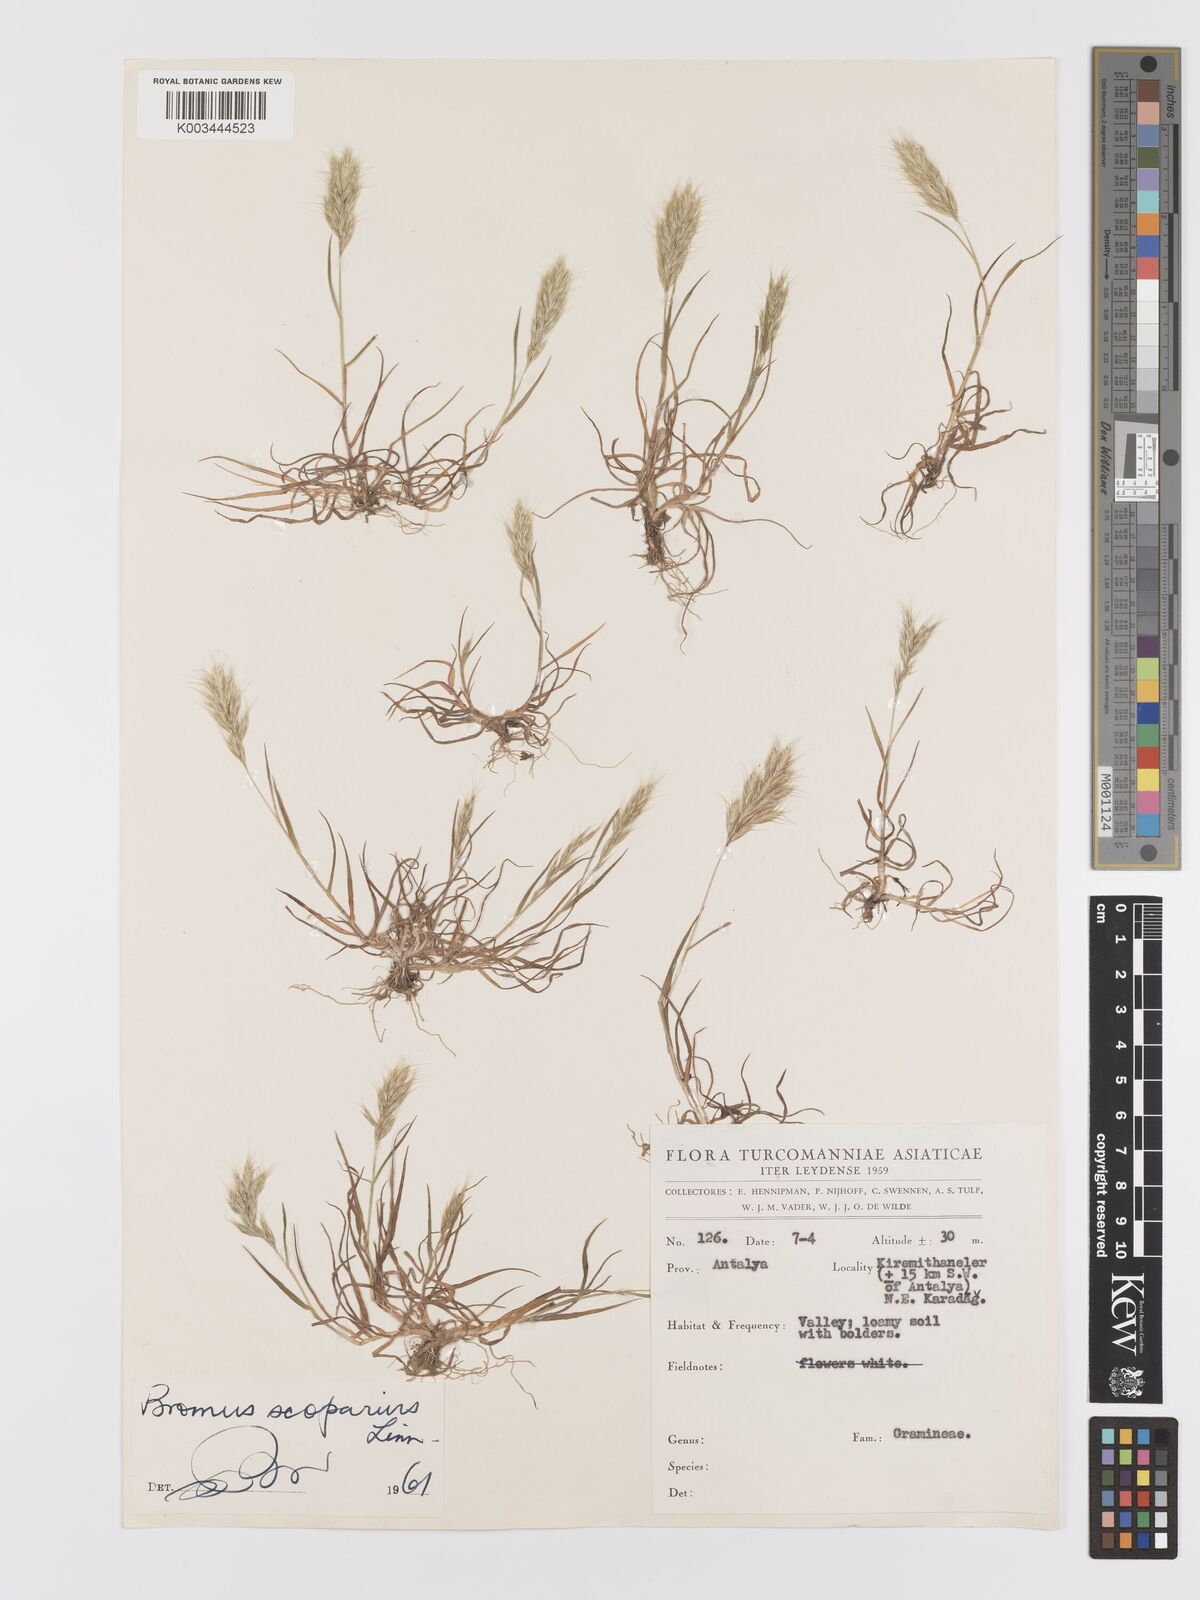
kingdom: Plantae
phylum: Tracheophyta
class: Liliopsida
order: Poales
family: Poaceae
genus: Bromus
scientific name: Bromus scoparius
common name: Broom brome
